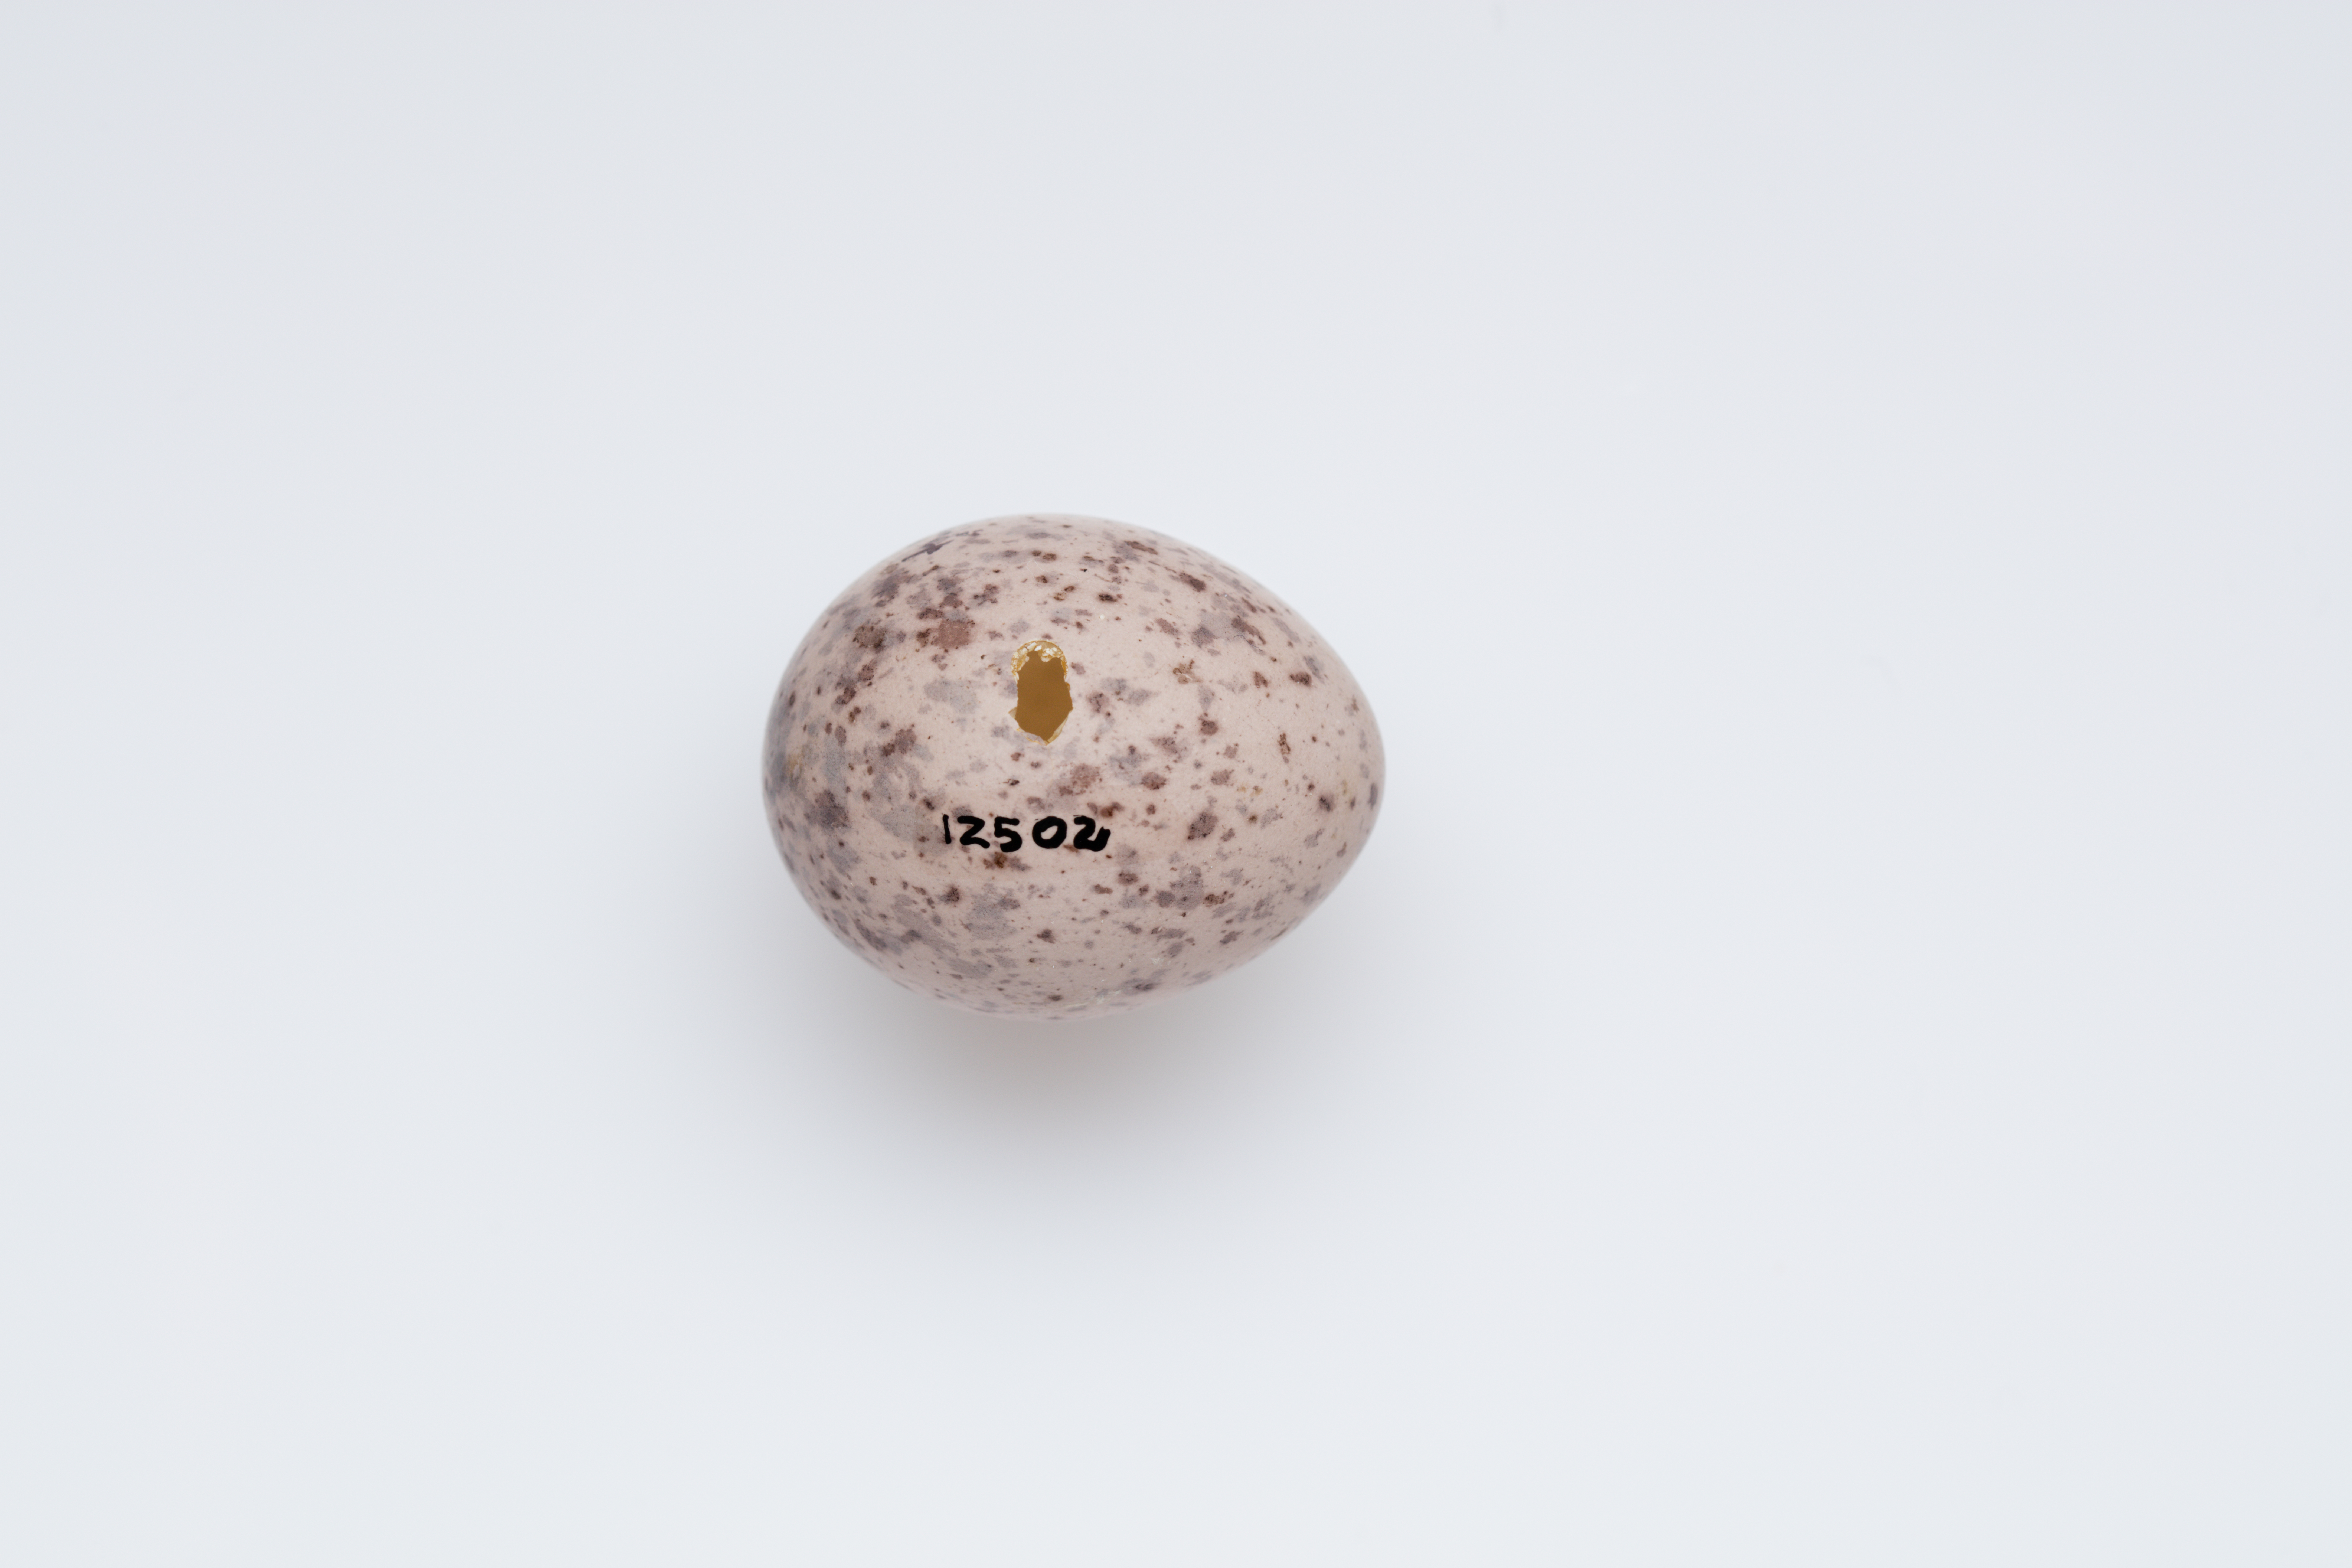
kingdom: Animalia
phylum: Chordata
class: Aves
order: Passeriformes
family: Callaeatidae
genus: Philesturnus
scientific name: Philesturnus carunculatus
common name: South island saddleback
